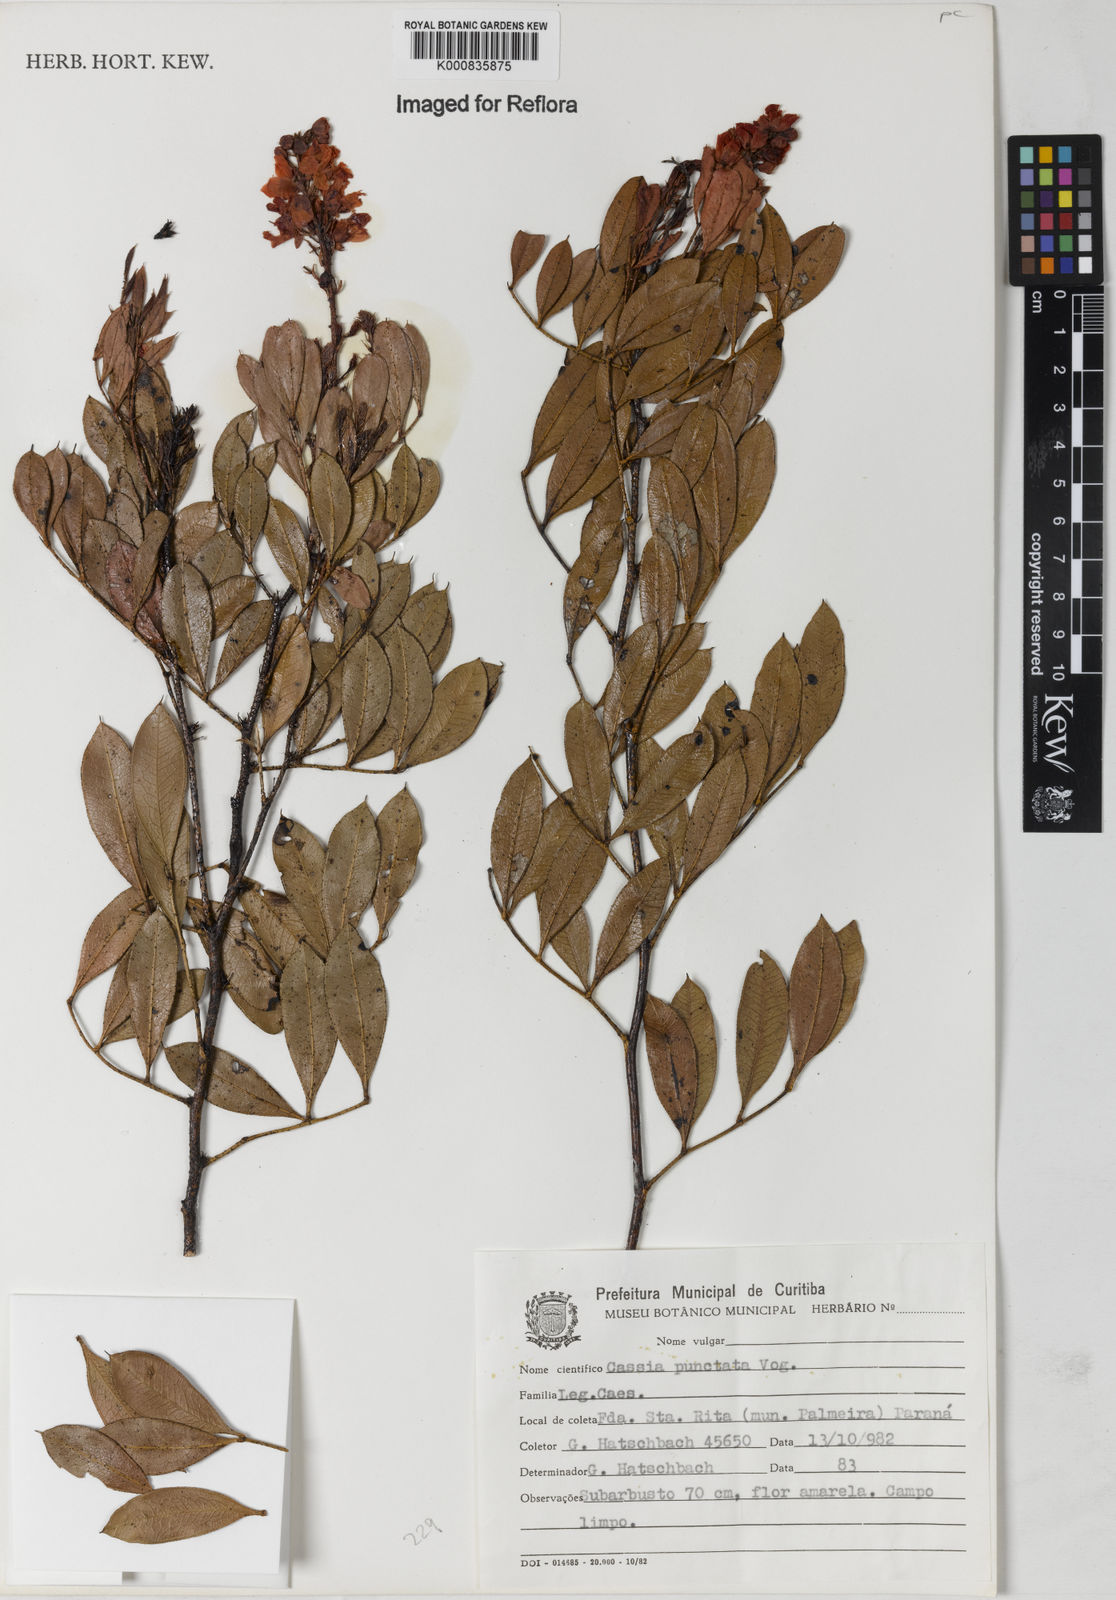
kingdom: Plantae
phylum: Tracheophyta
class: Magnoliopsida
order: Fabales
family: Fabaceae
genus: Chamaecrista
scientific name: Chamaecrista punctata
